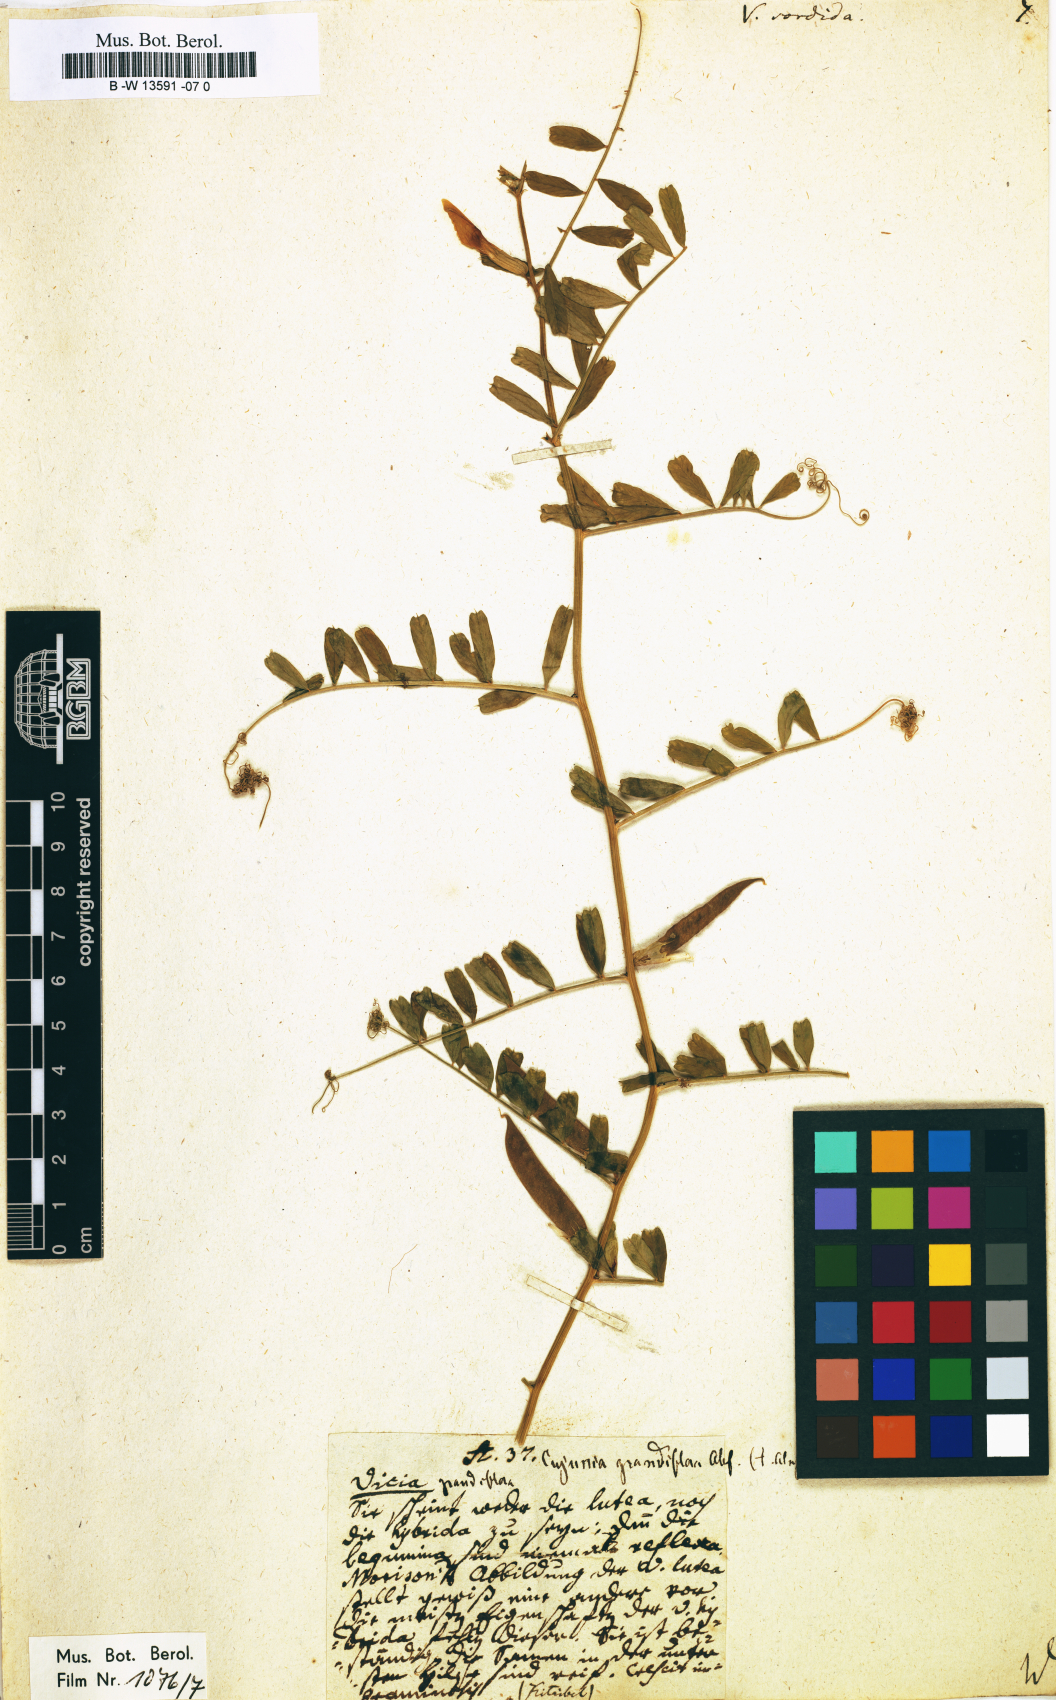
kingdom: Plantae
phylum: Tracheophyta
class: Magnoliopsida
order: Fabales
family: Fabaceae
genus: Vicia
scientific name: Vicia
